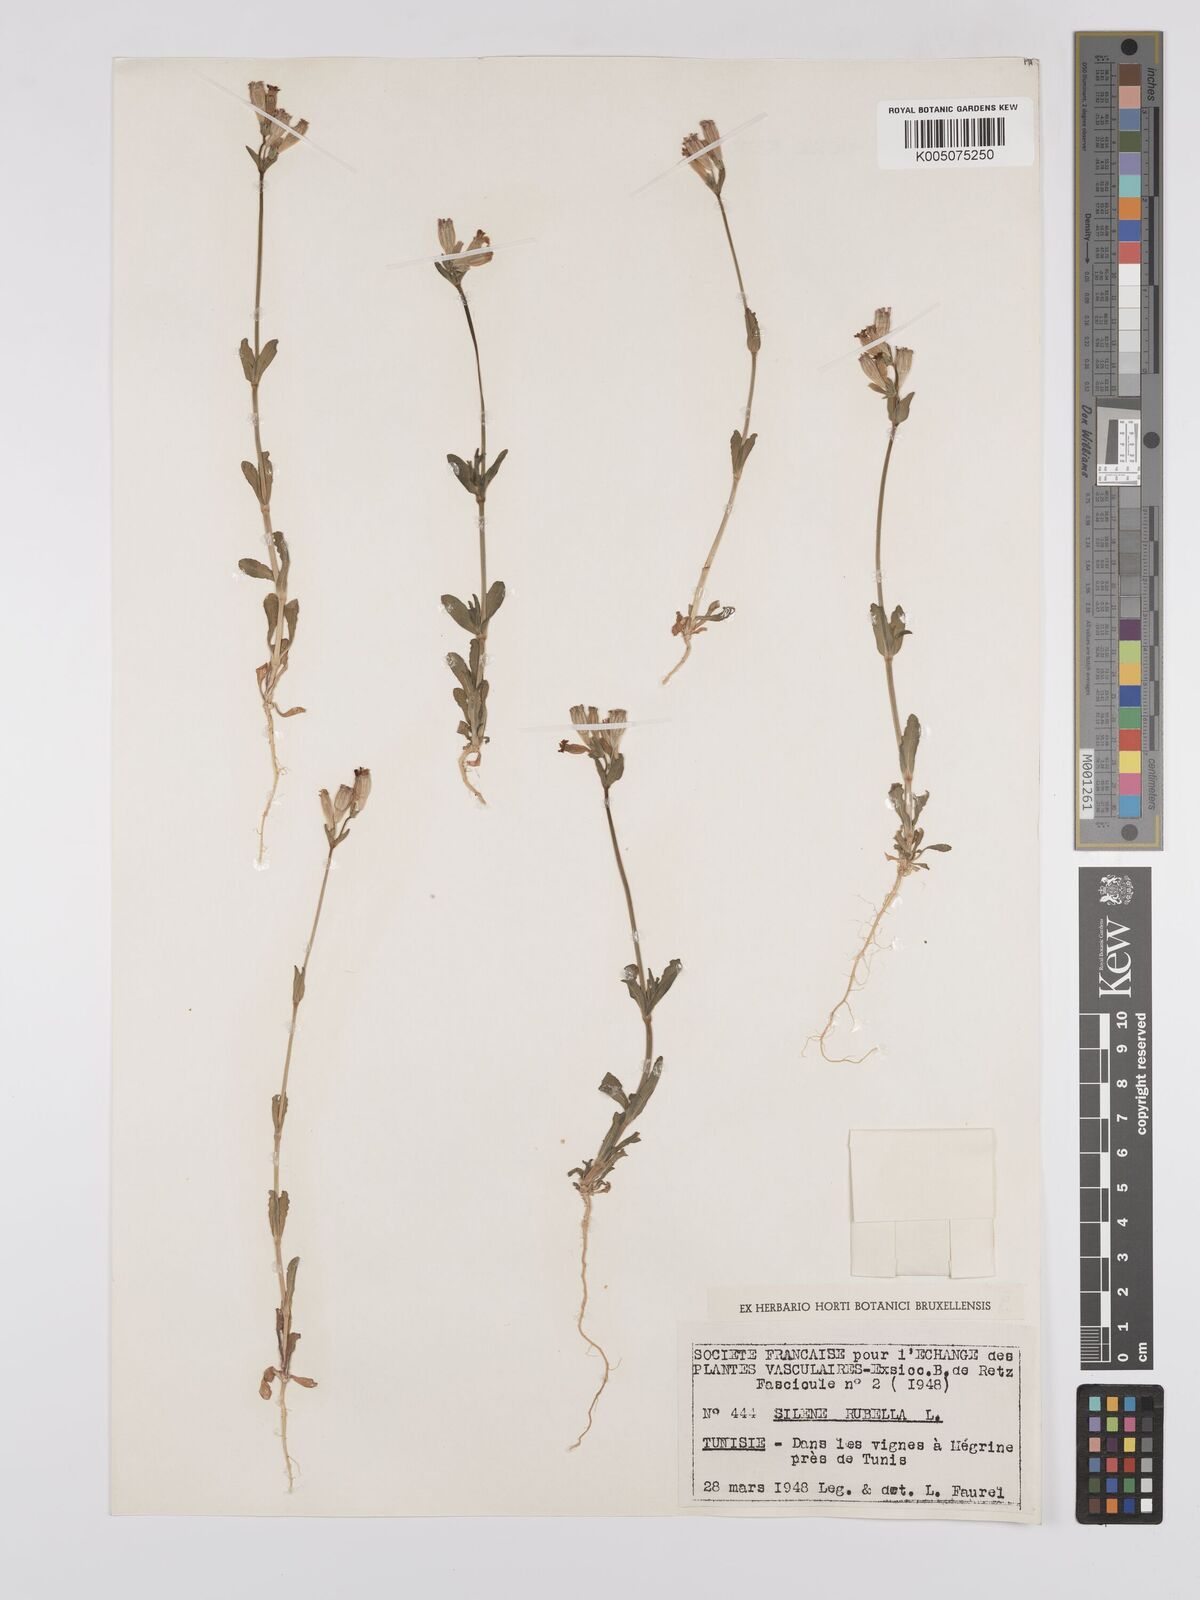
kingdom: Plantae
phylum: Tracheophyta
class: Magnoliopsida
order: Caryophyllales
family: Caryophyllaceae
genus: Silene
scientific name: Silene rubella
